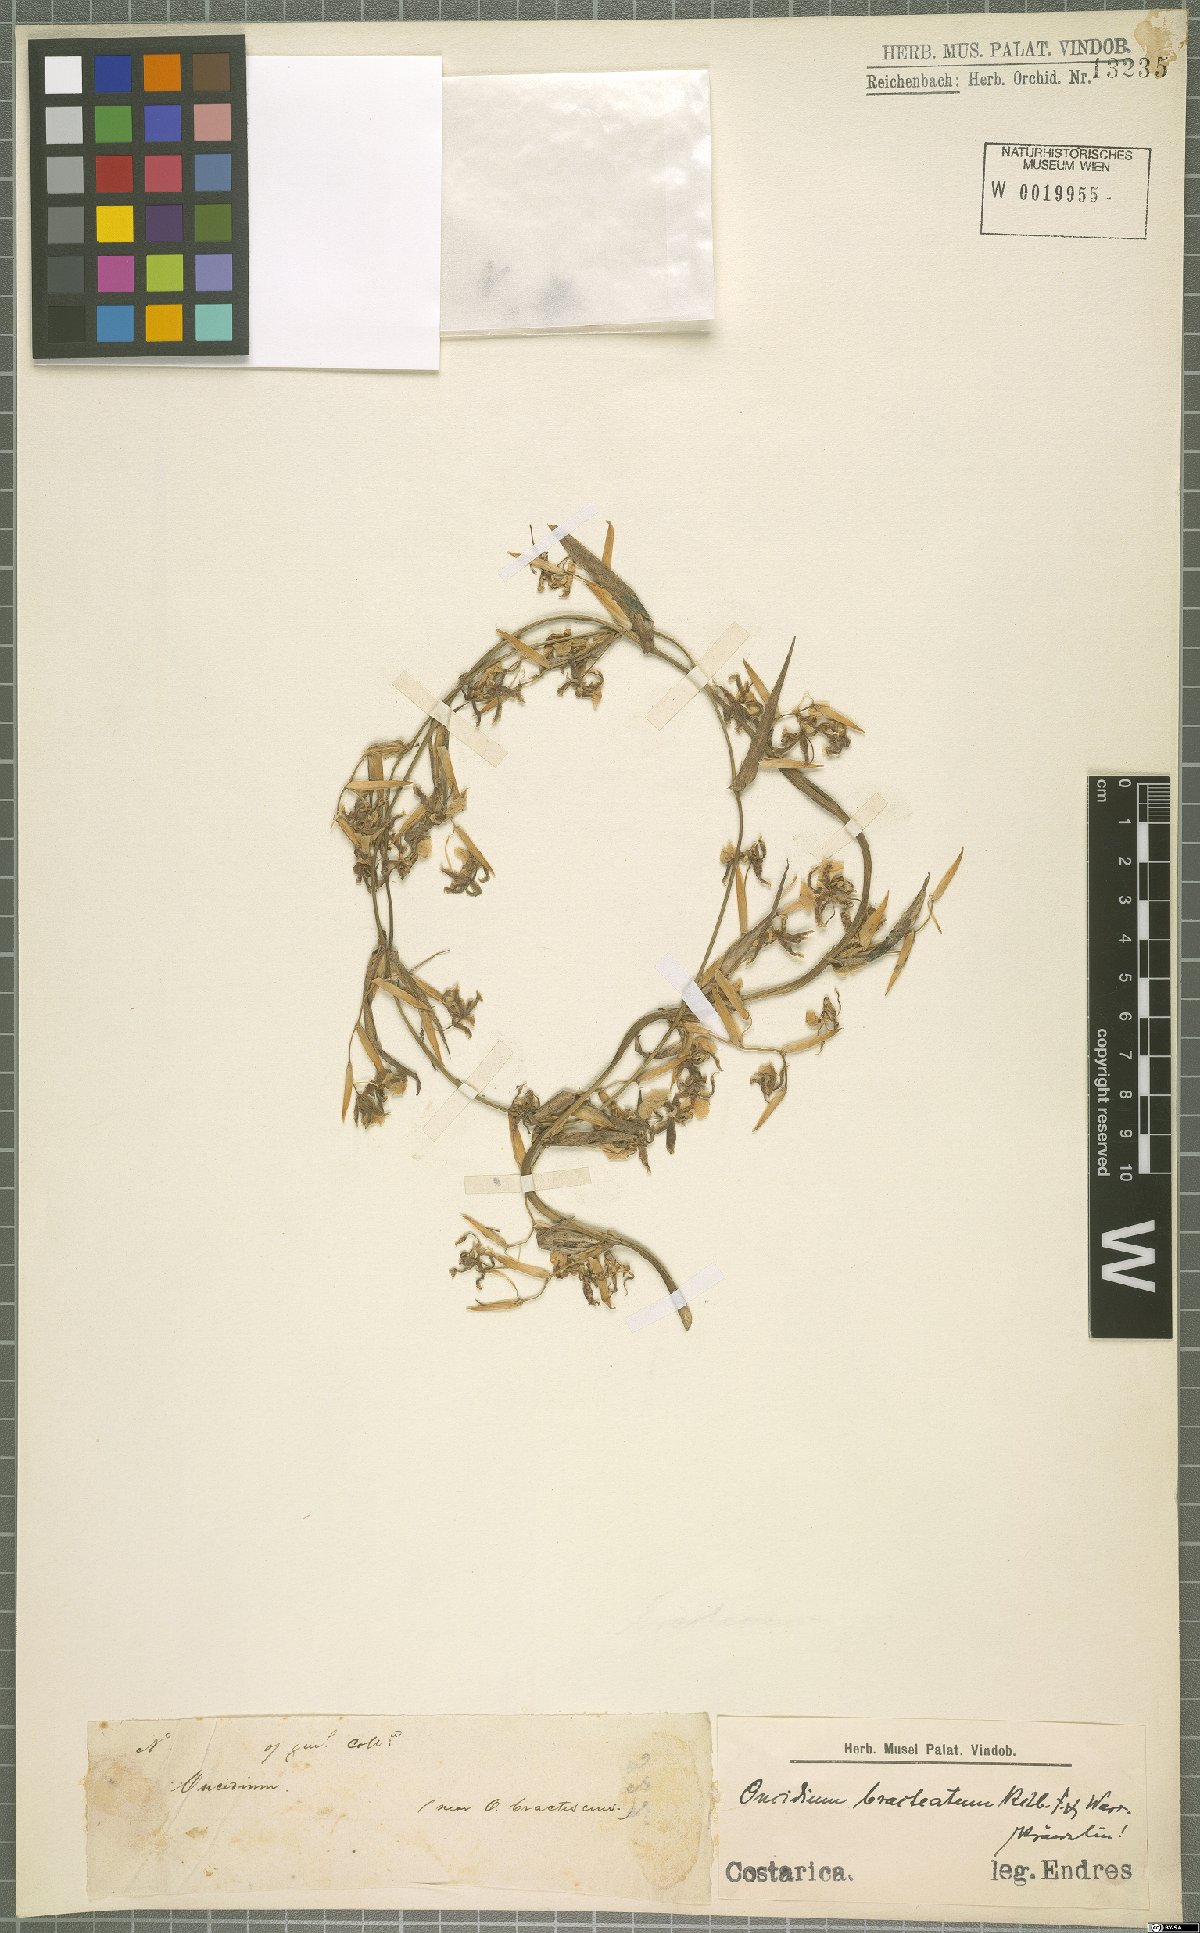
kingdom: Plantae
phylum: Tracheophyta
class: Liliopsida
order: Asparagales
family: Orchidaceae
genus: Oncidium
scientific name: Oncidium bracteatum
